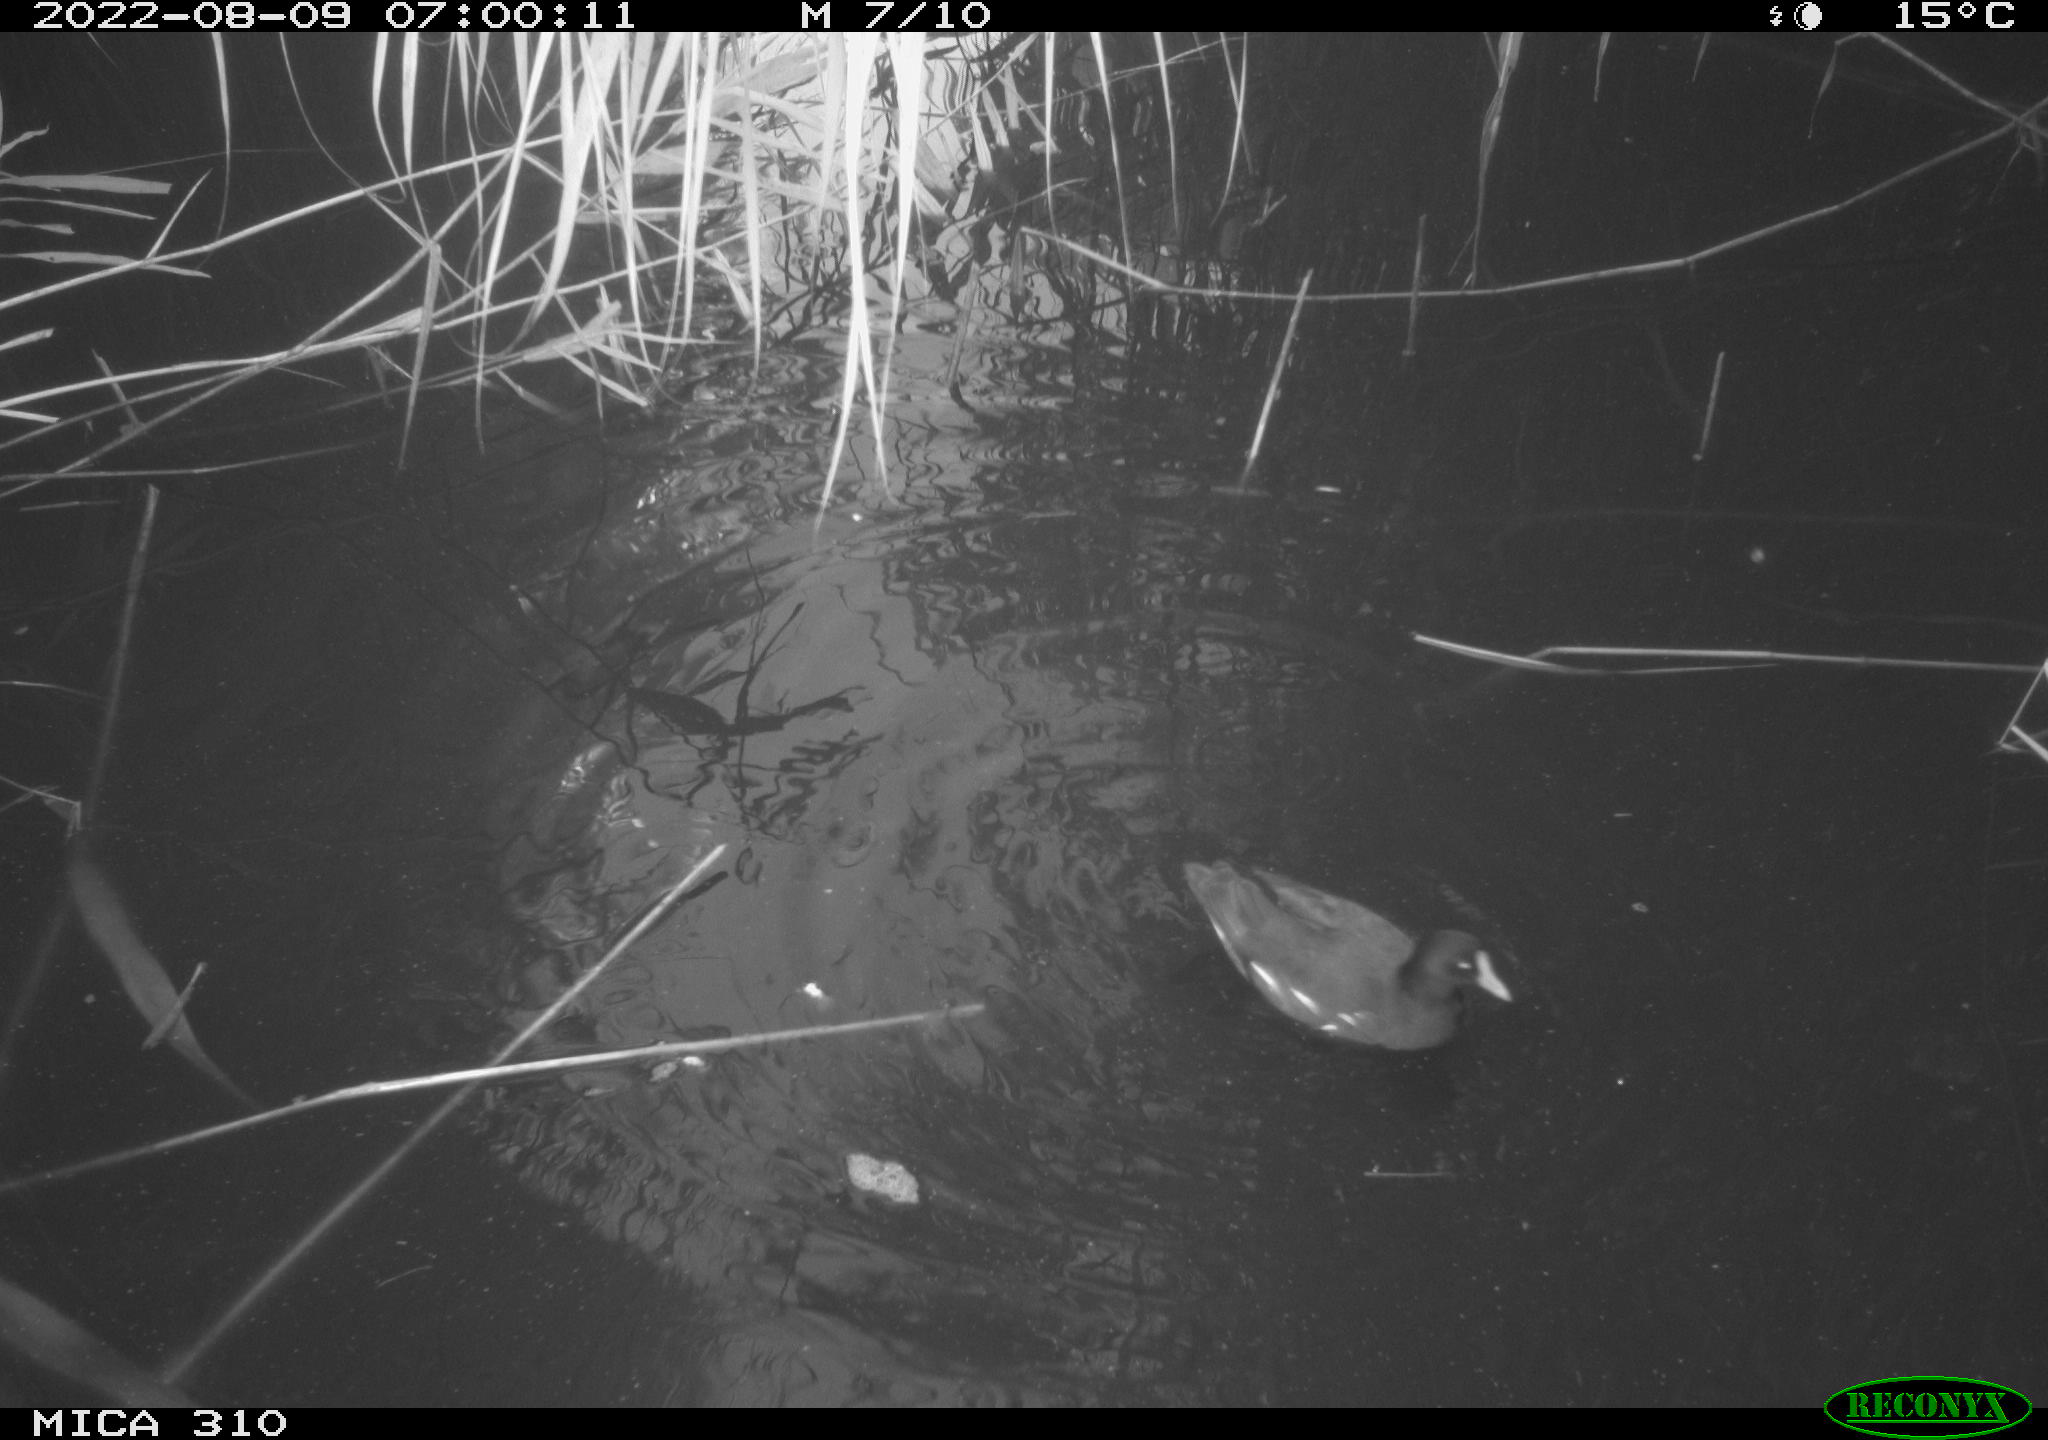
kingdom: Animalia
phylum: Chordata
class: Aves
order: Gruiformes
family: Rallidae
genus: Gallinula
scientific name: Gallinula chloropus
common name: Common moorhen
